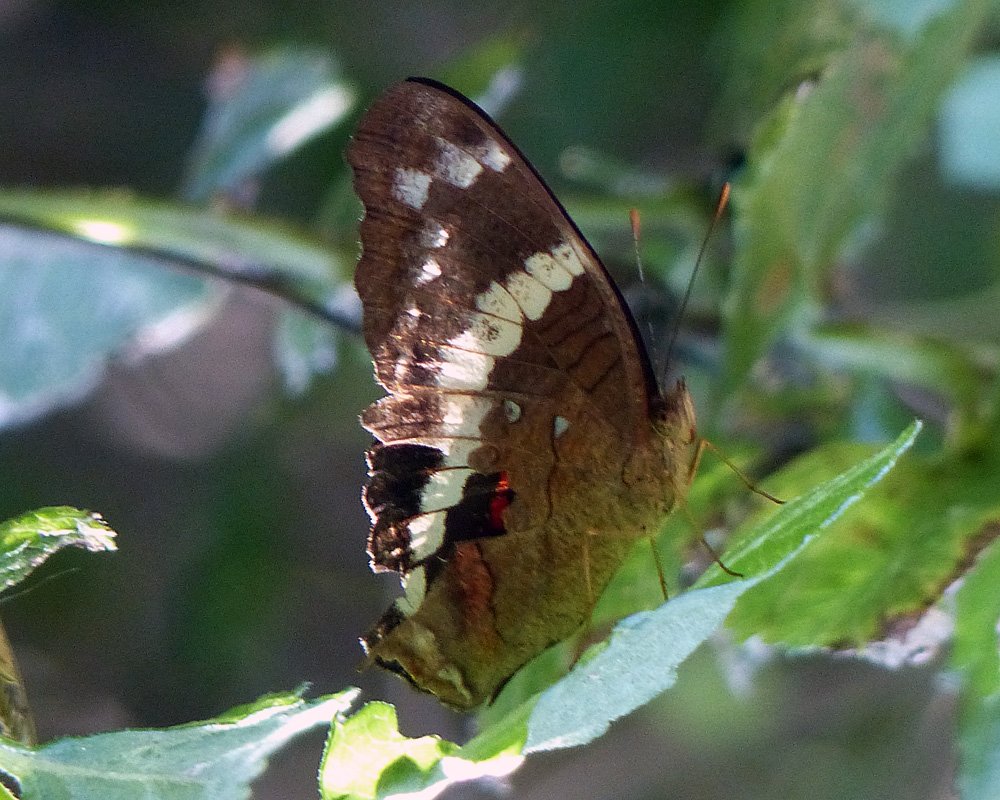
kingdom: Animalia
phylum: Arthropoda
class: Insecta
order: Lepidoptera
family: Nymphalidae
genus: Anartia
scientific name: Anartia fatima
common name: Banded Peacock
